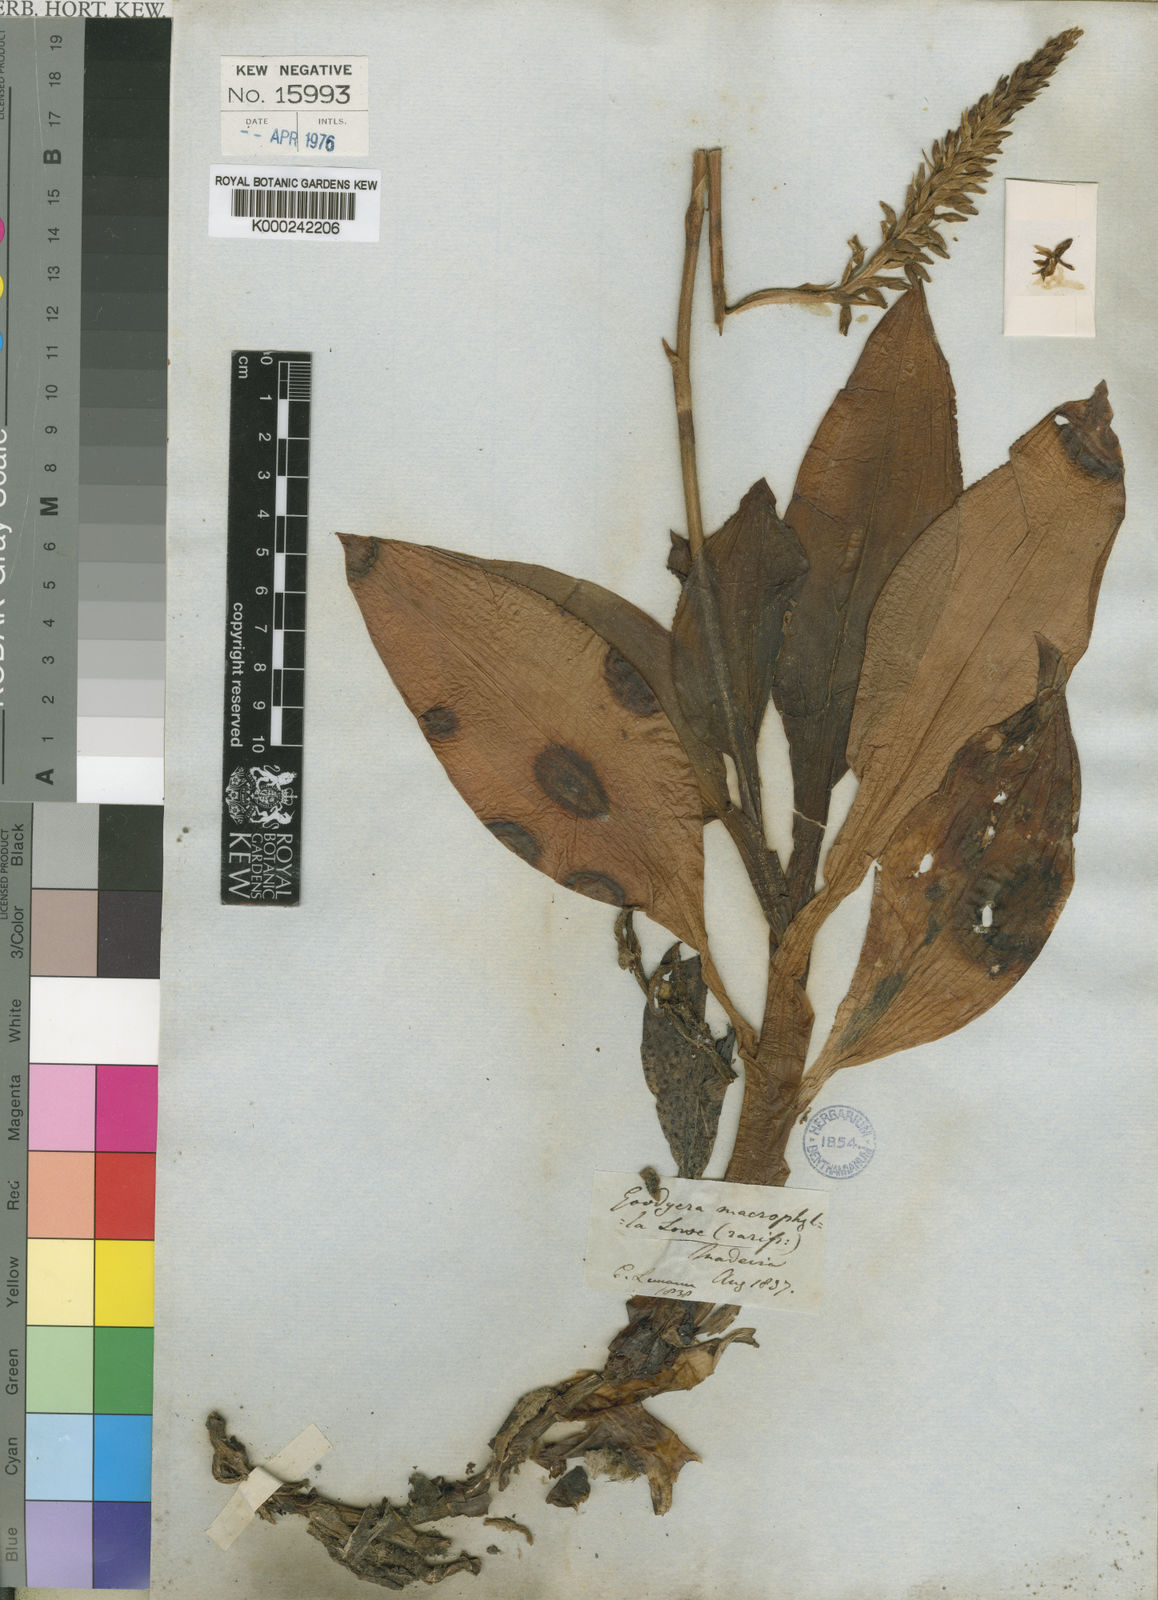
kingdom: Plantae
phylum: Tracheophyta
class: Liliopsida
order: Asparagales
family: Orchidaceae
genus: Goodyera
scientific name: Goodyera macrophylla
